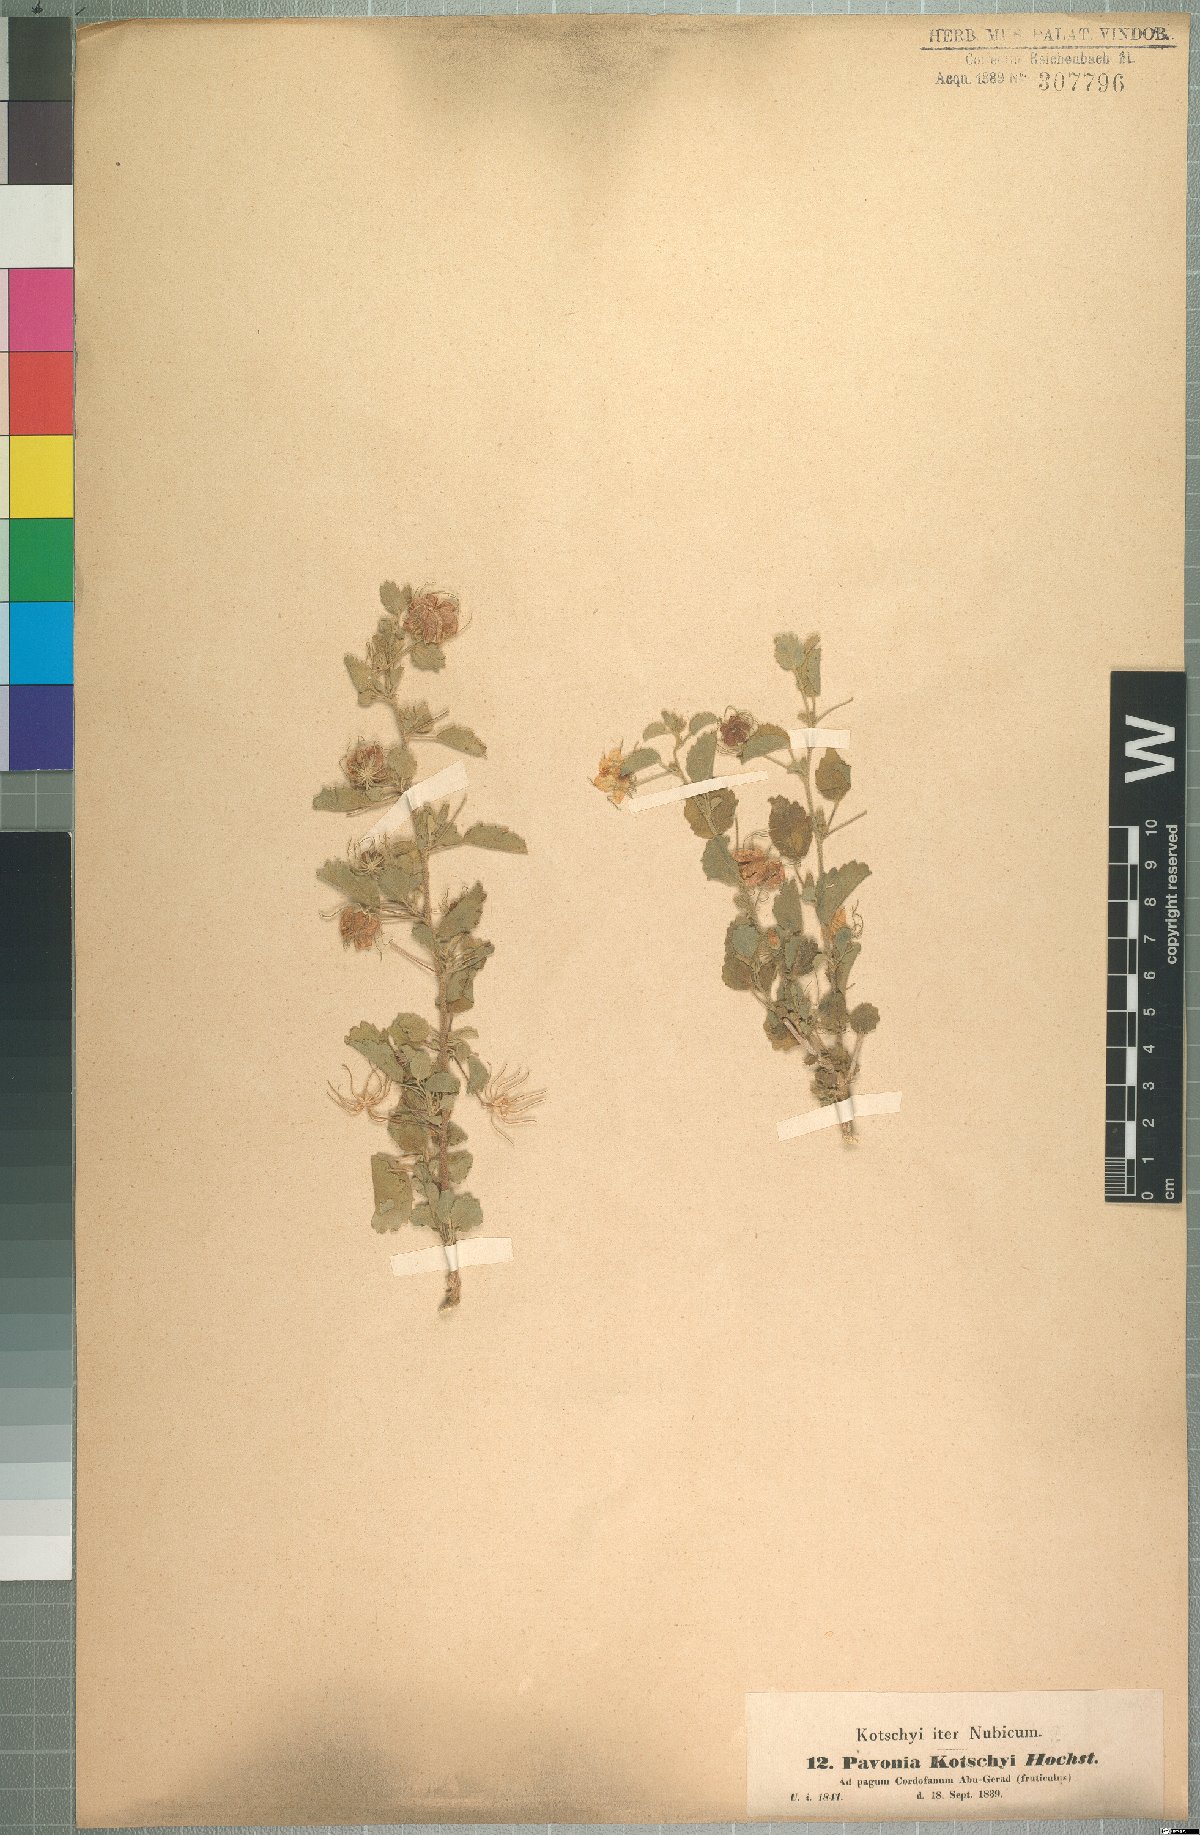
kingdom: Plantae
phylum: Tracheophyta
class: Magnoliopsida
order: Malvales
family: Malvaceae
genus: Pavonia
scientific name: Pavonia kotschyi
